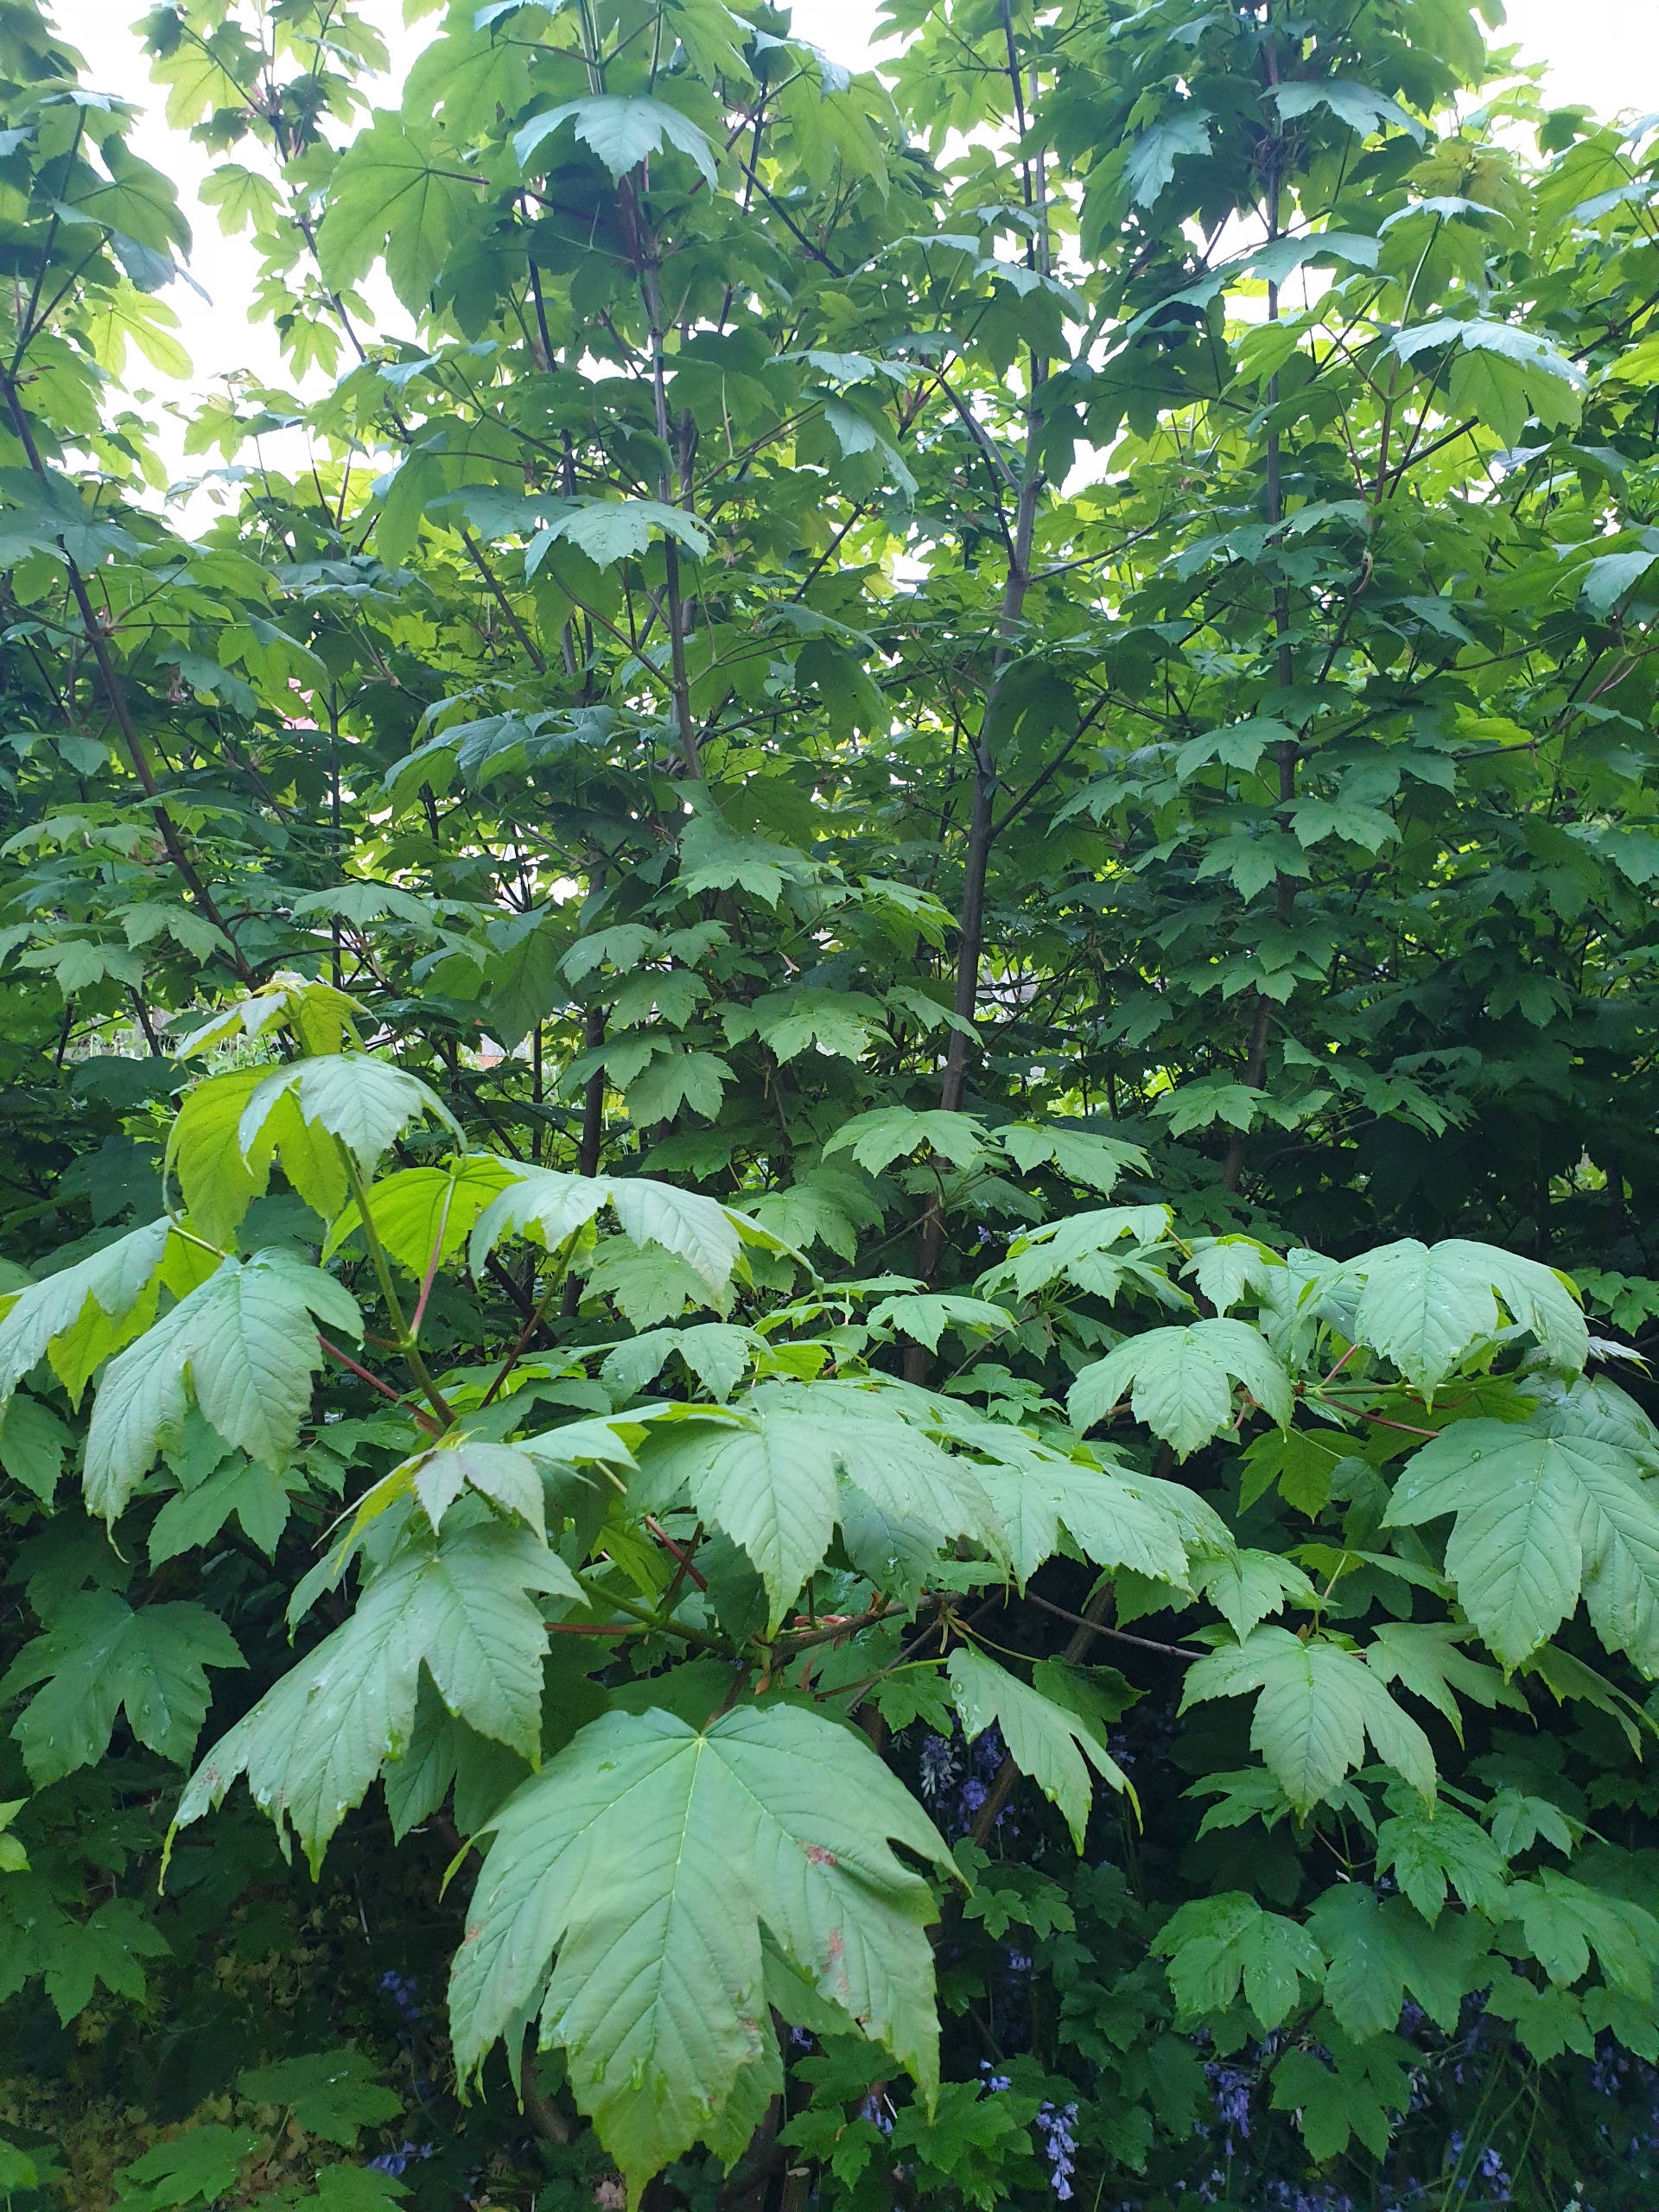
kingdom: Plantae
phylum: Tracheophyta
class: Magnoliopsida
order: Sapindales
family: Sapindaceae
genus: Acer
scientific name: Acer pseudoplatanus
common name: Ahorn
